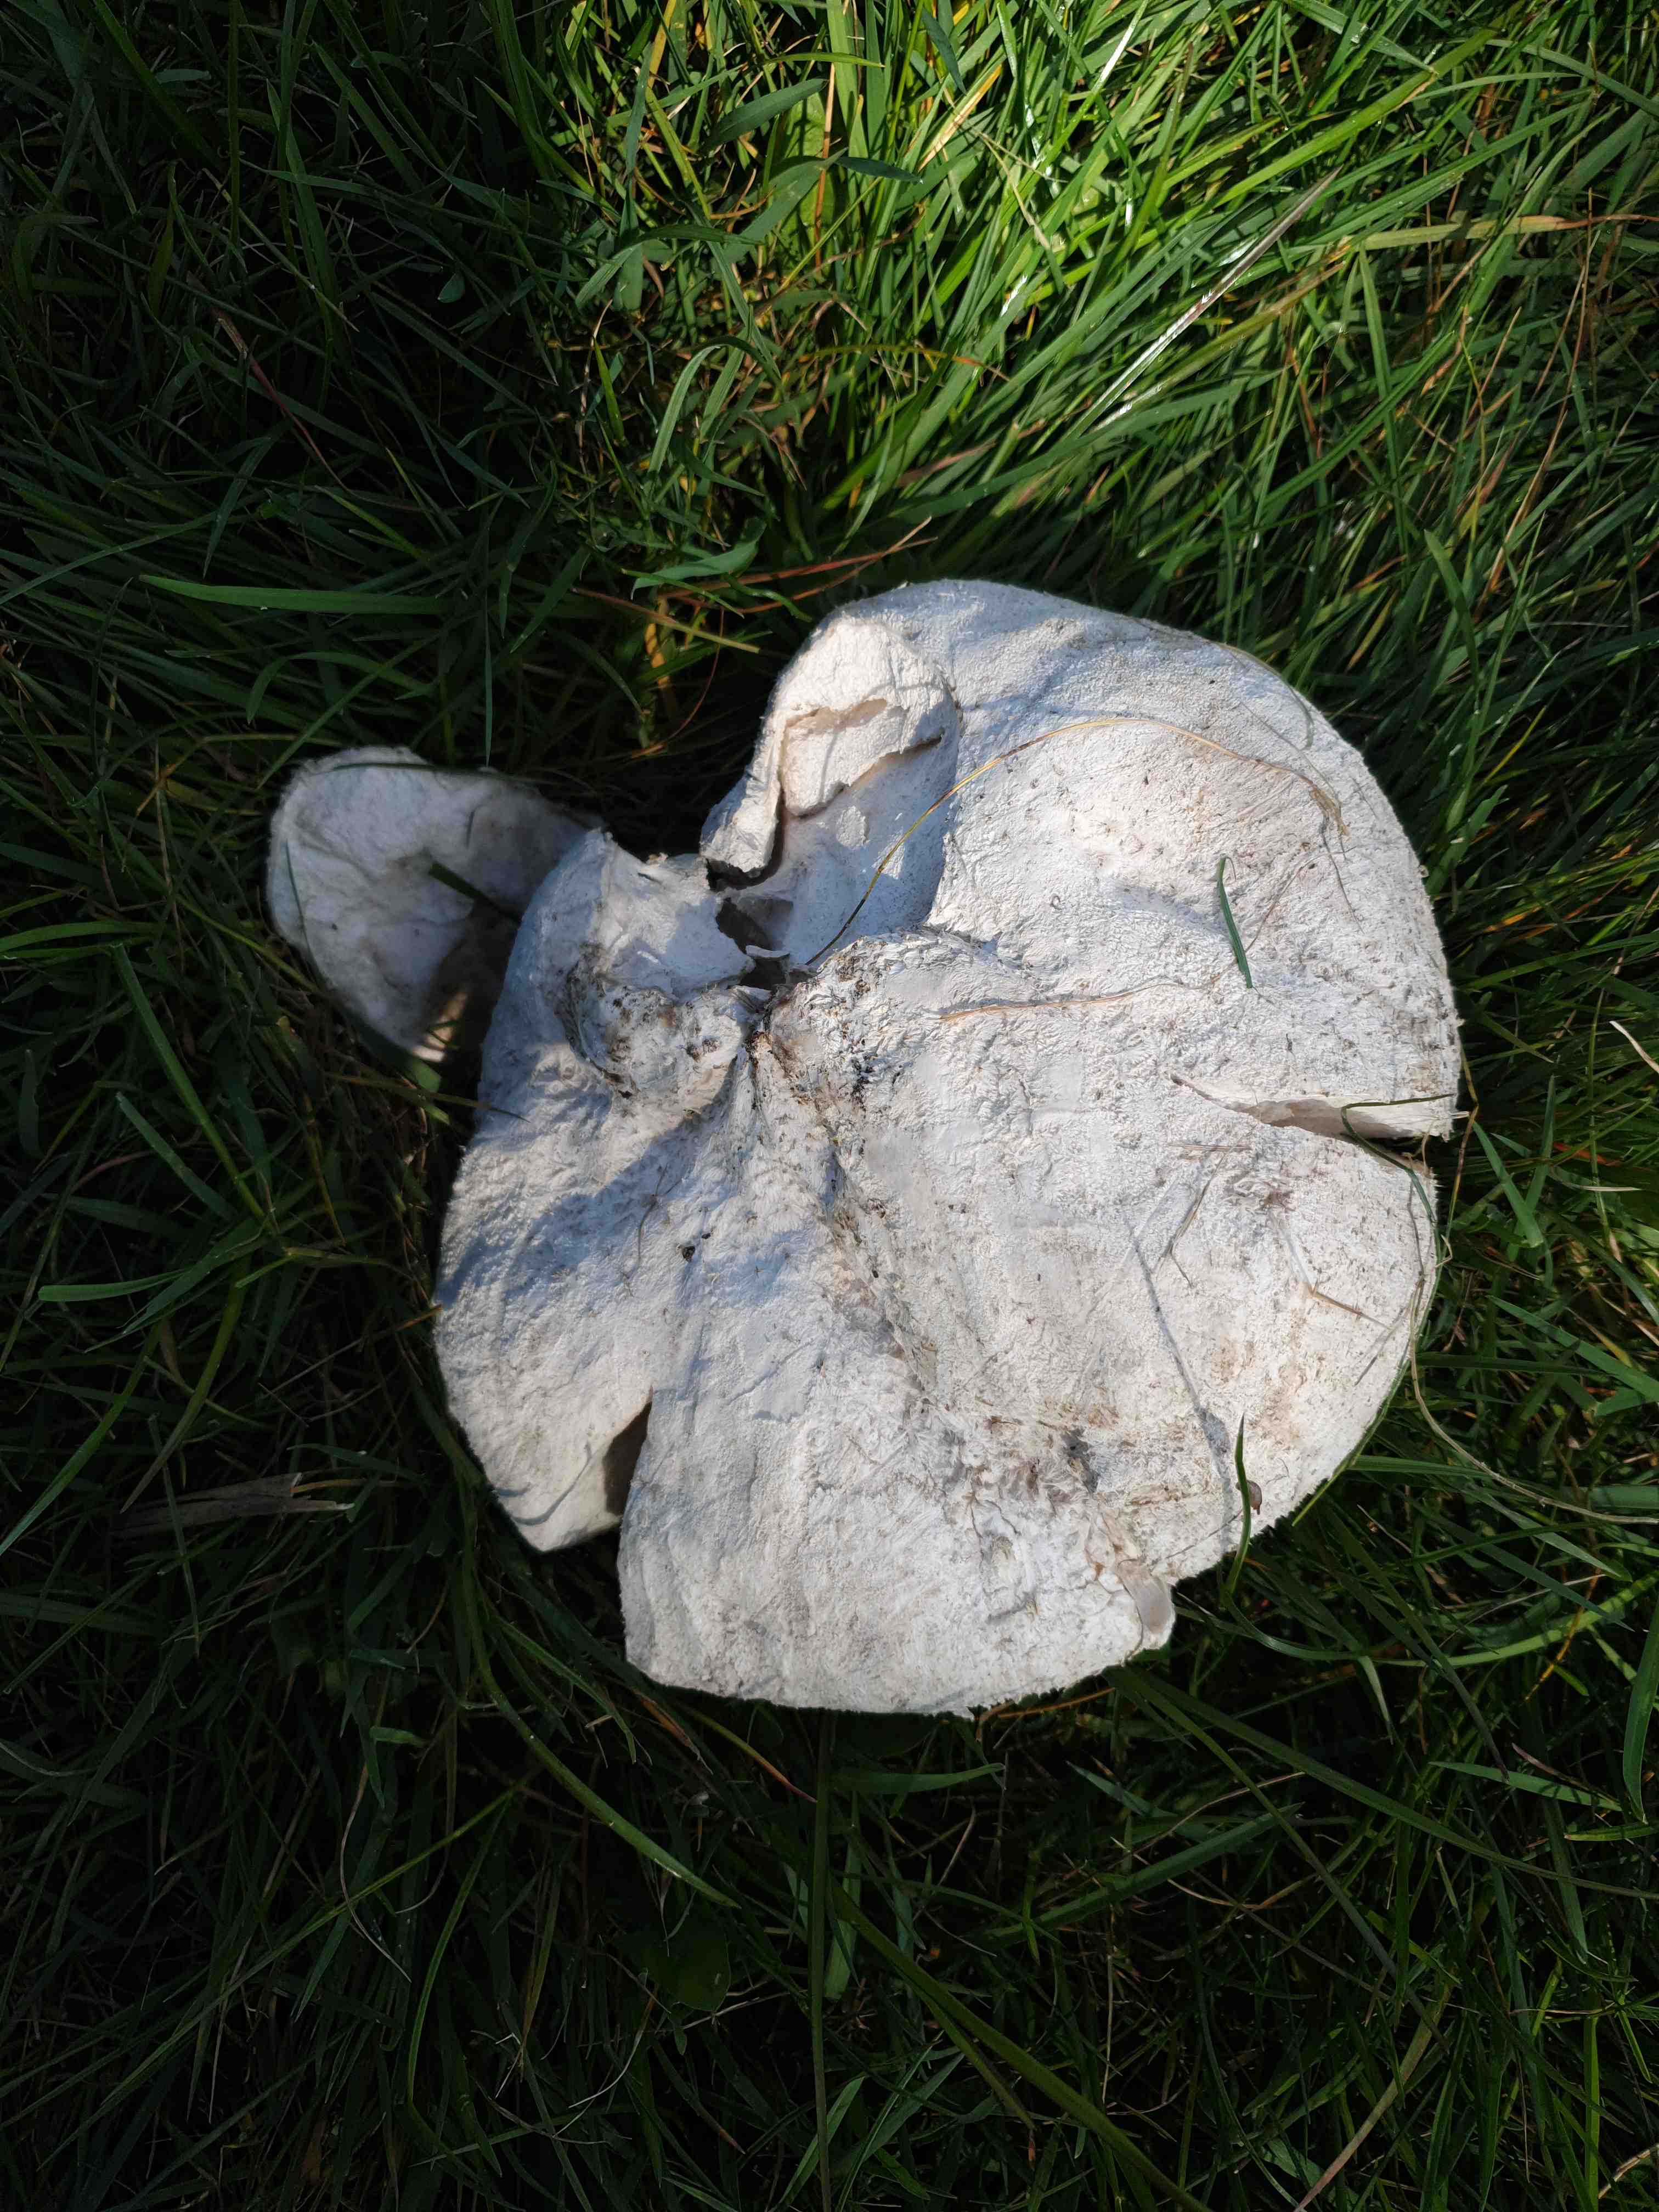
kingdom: Fungi
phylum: Basidiomycota
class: Agaricomycetes
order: Agaricales
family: Lycoperdaceae
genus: Bovistella
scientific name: Bovistella utriformis
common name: skællet støvbold
